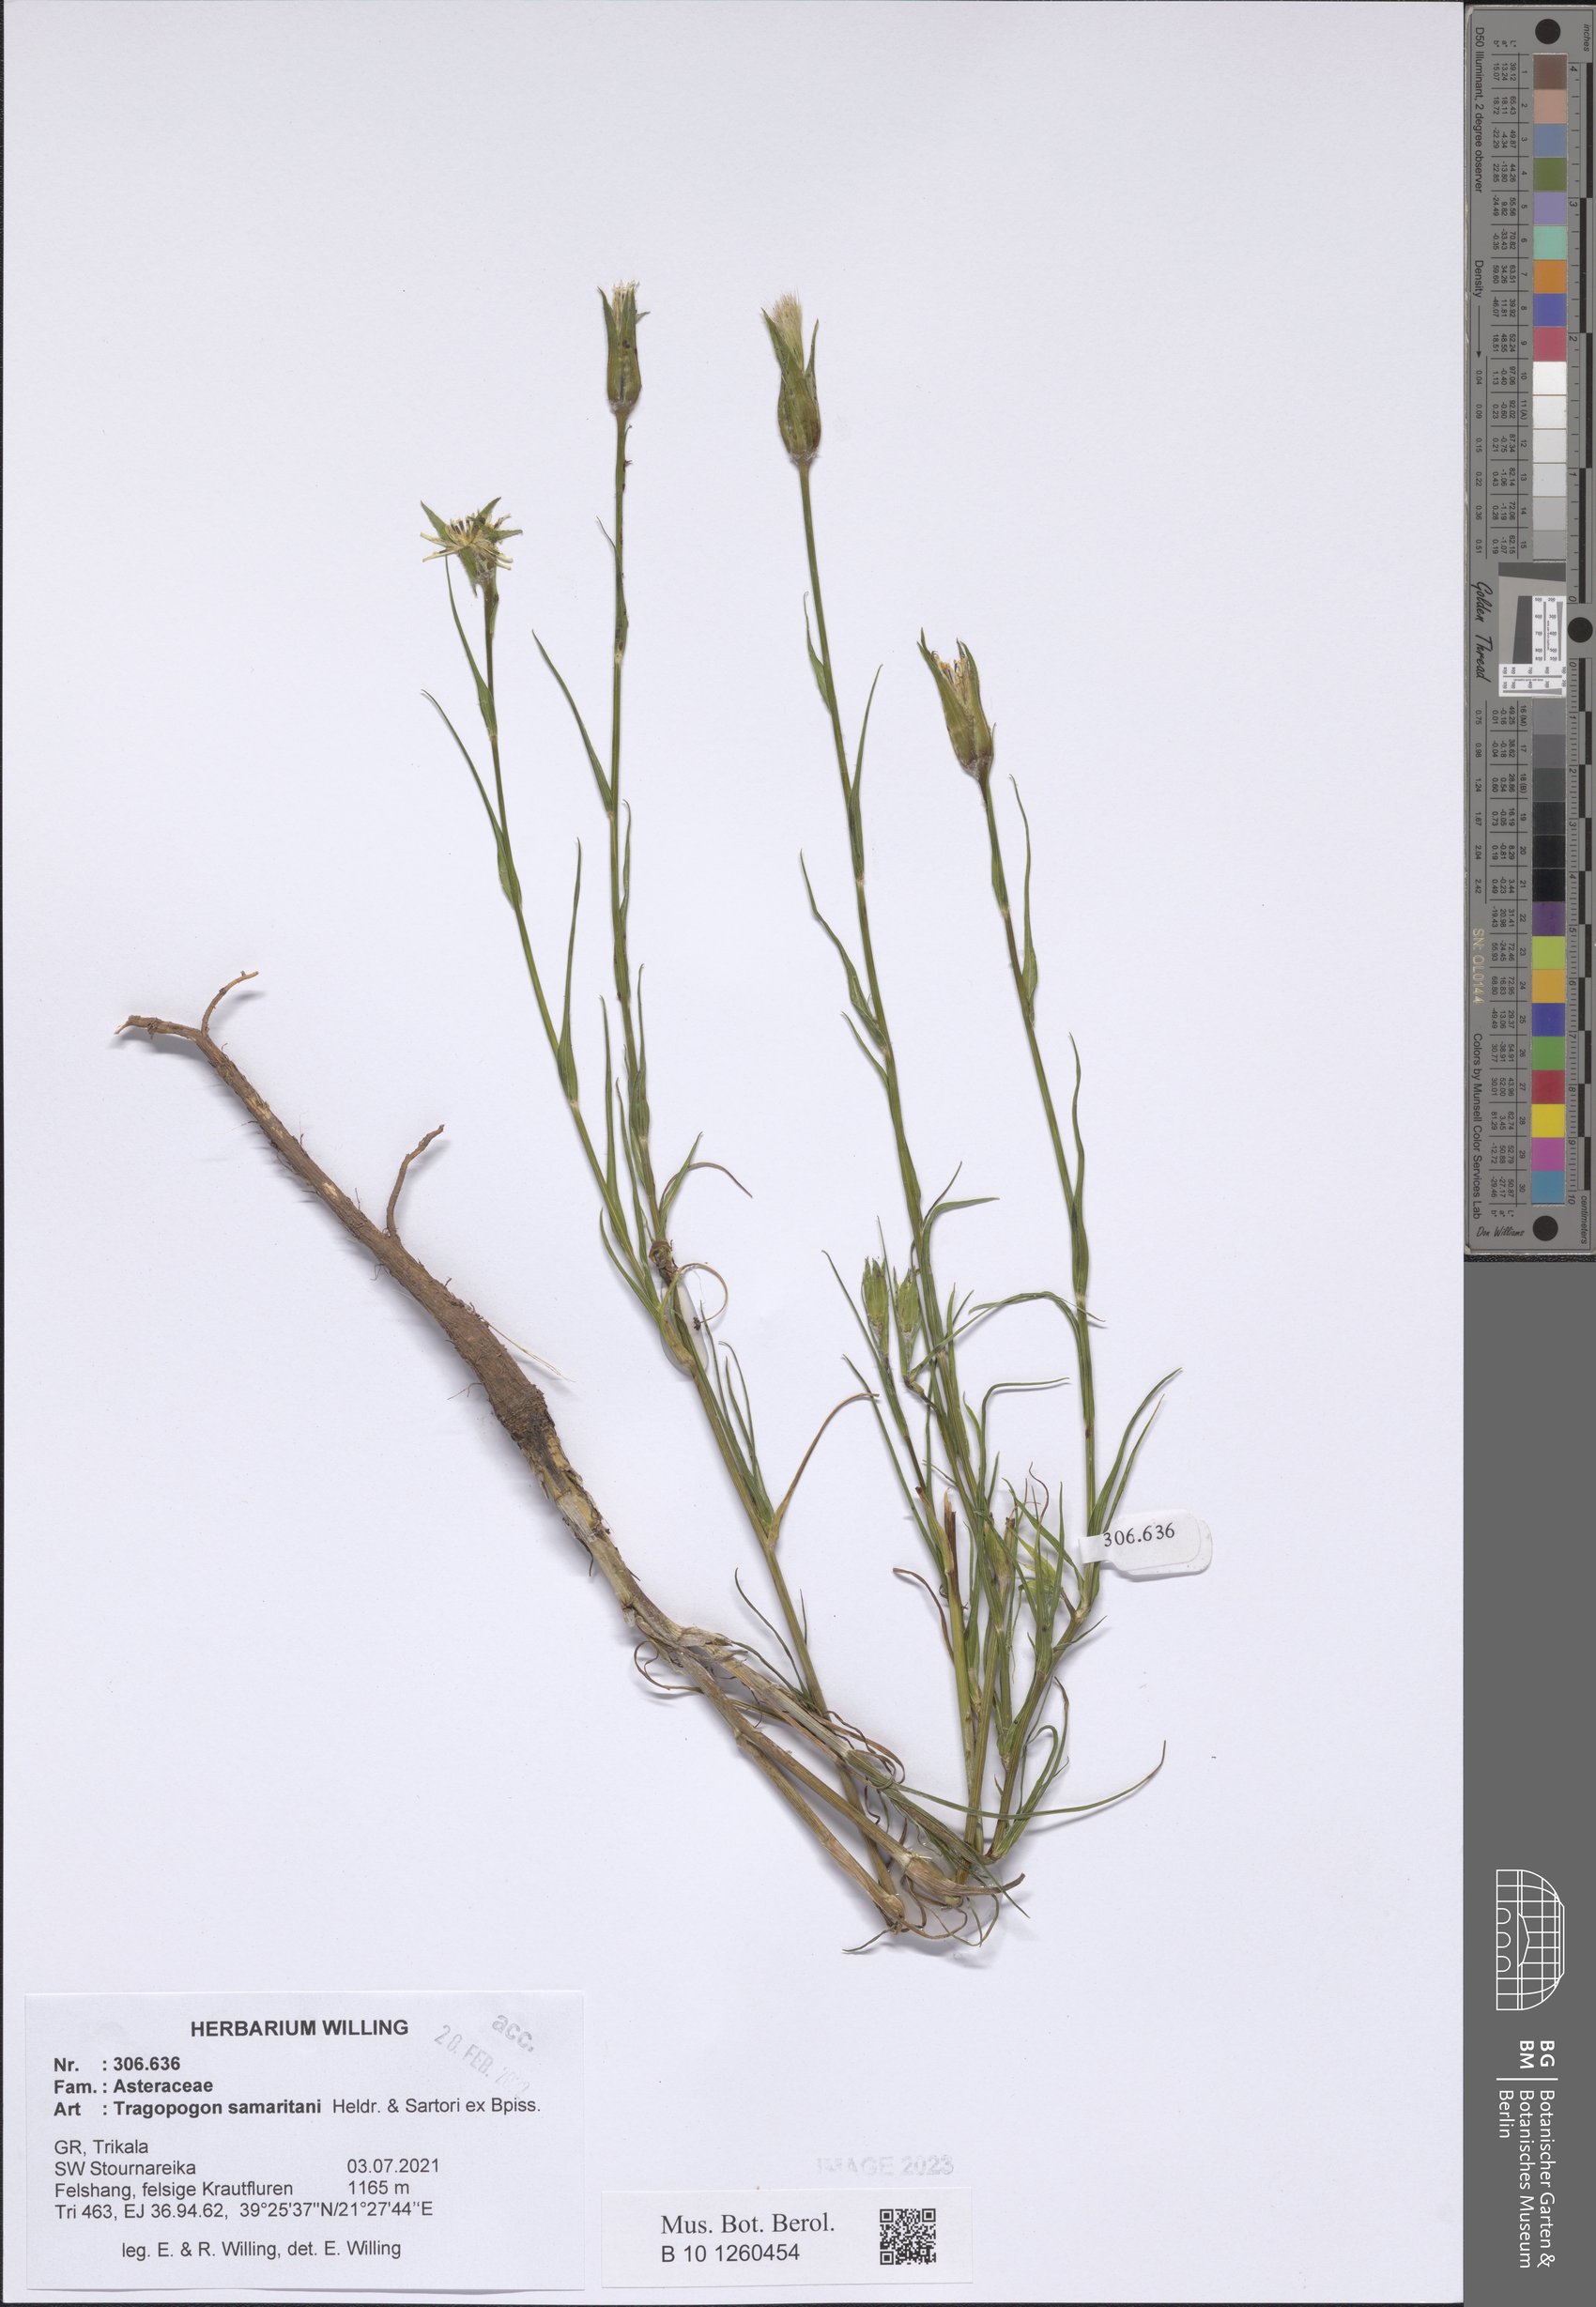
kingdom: Plantae
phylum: Tracheophyta
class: Magnoliopsida
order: Asterales
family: Asteraceae
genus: Tragopogon
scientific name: Tragopogon samaritani
